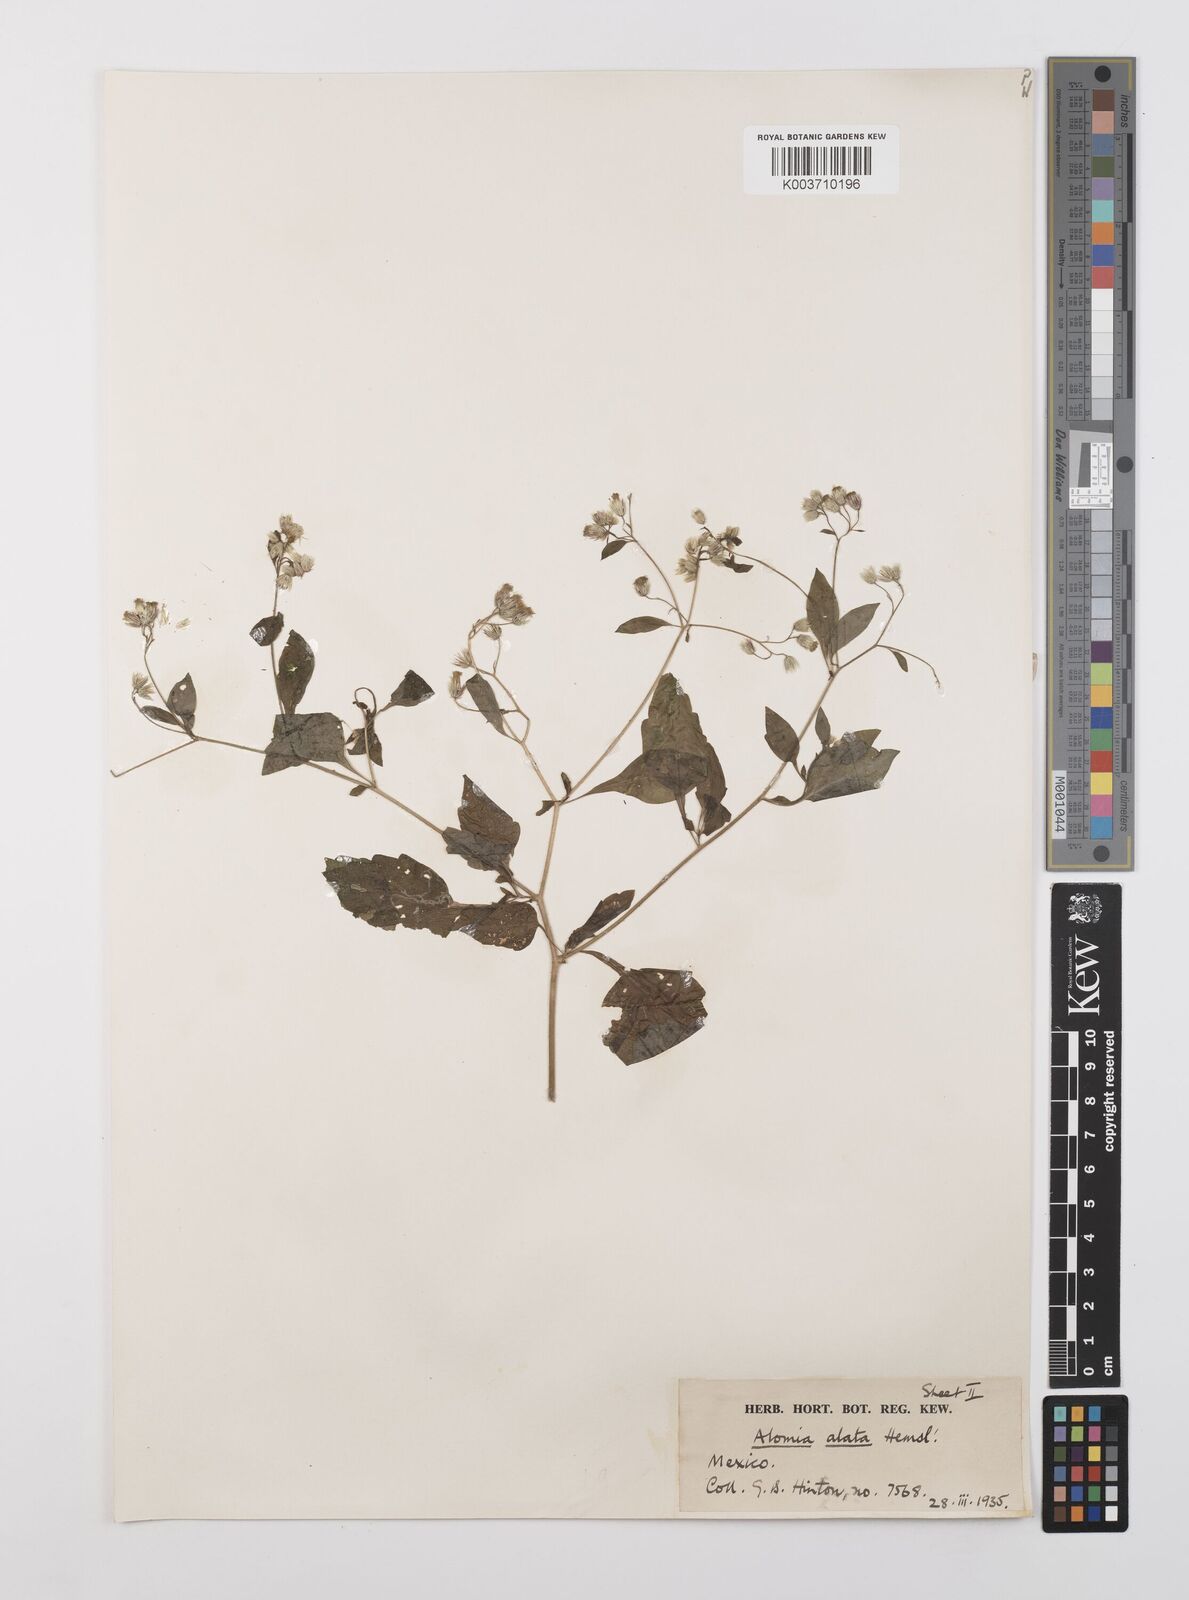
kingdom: Plantae
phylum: Tracheophyta
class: Magnoliopsida
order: Asterales
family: Asteraceae
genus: Alomia
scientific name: Alomia alata
